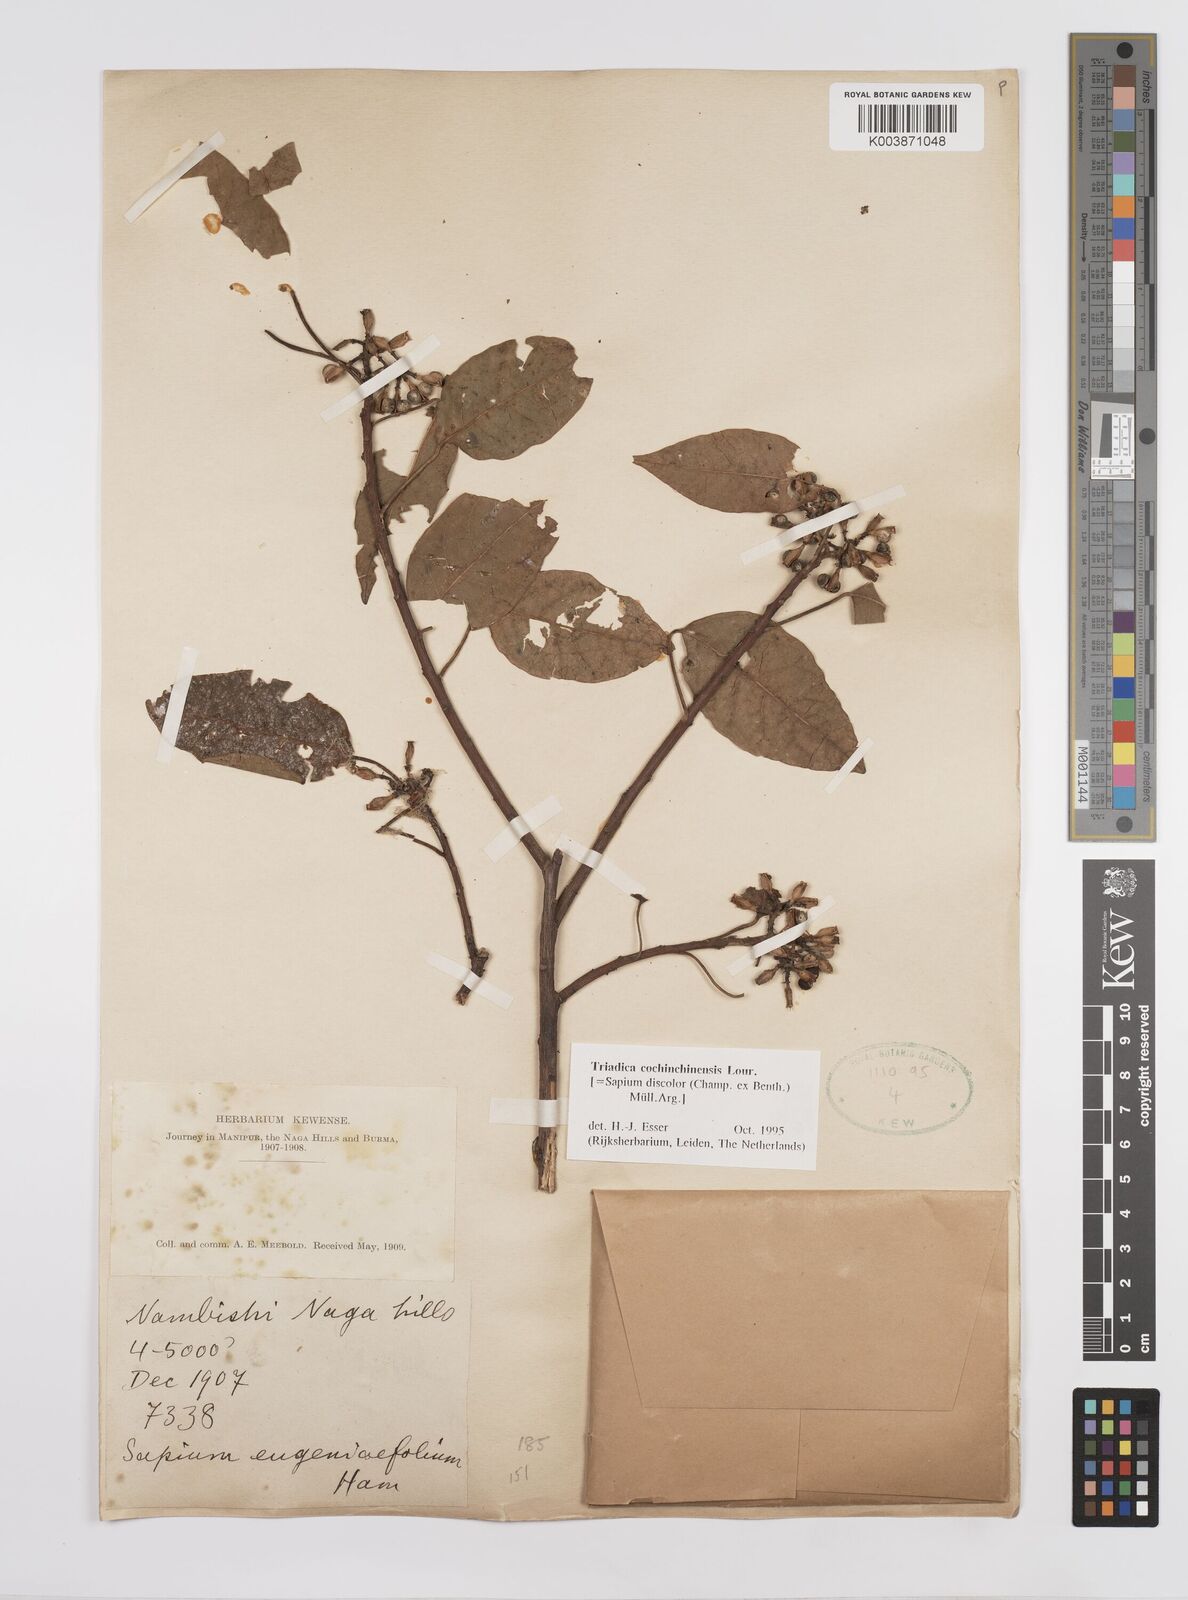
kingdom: Plantae
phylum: Tracheophyta
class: Magnoliopsida
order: Malpighiales
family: Euphorbiaceae
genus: Triadica
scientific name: Triadica cochinchinensis
